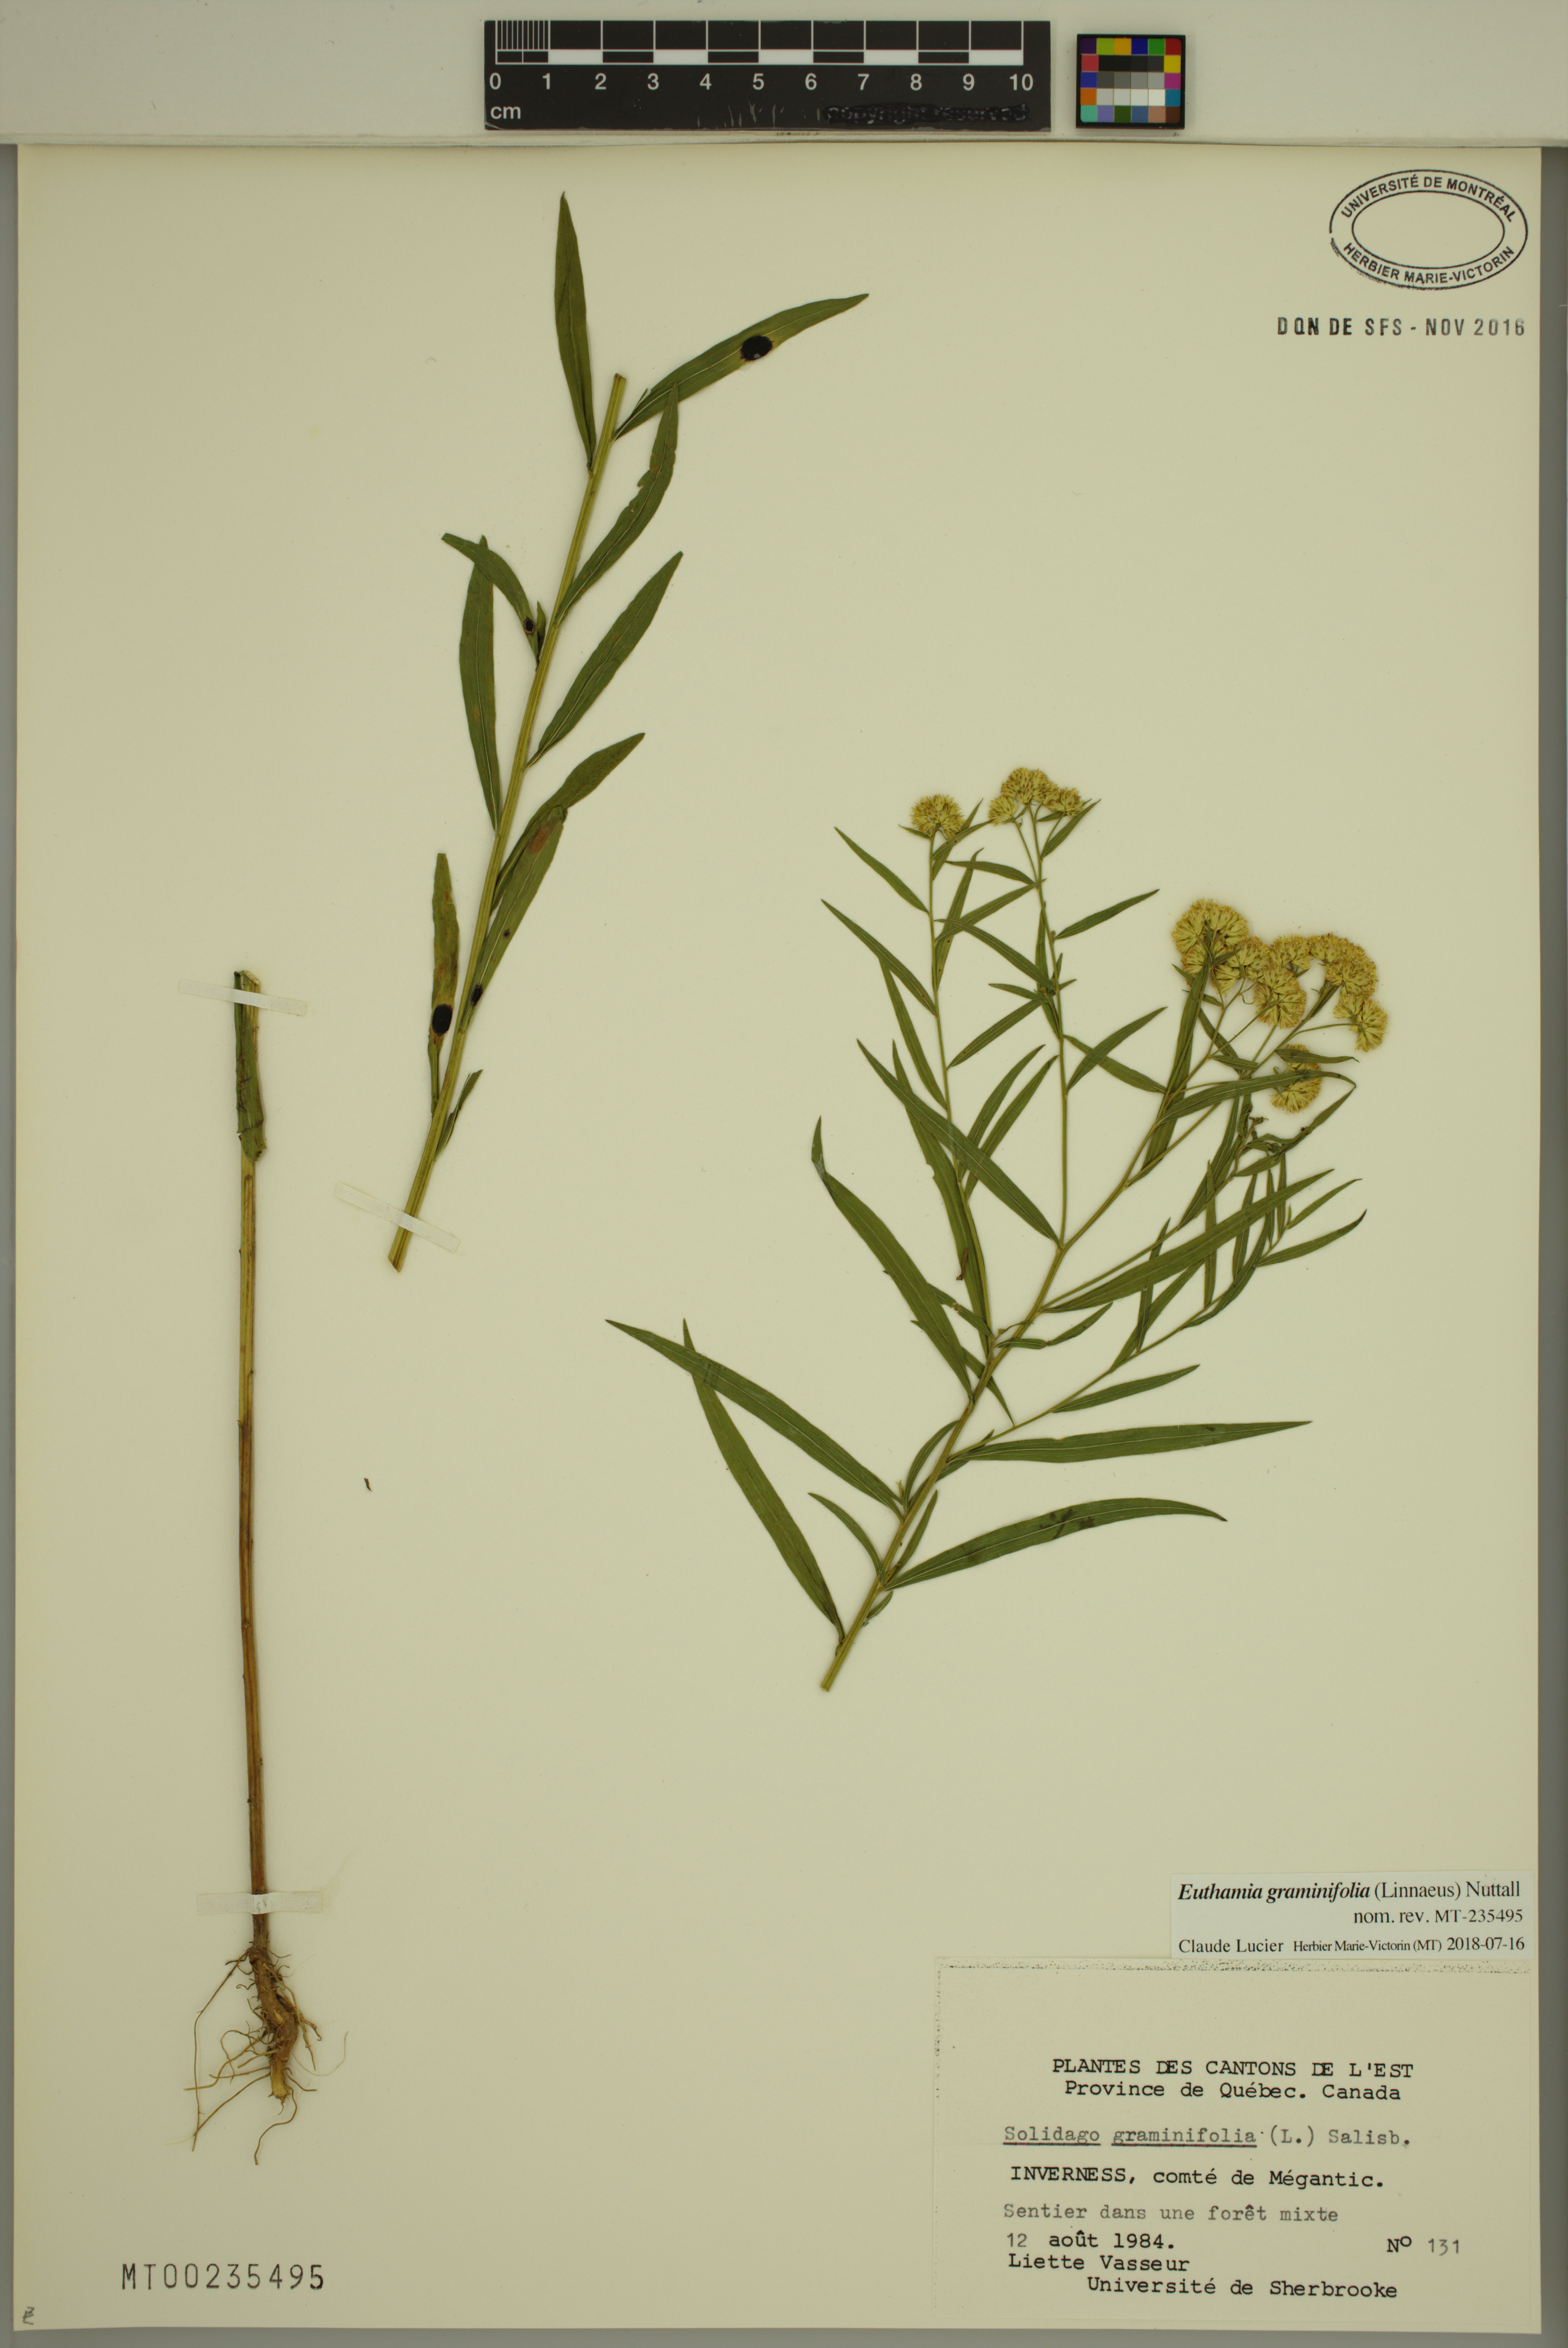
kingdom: Plantae
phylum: Tracheophyta
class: Magnoliopsida
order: Asterales
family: Asteraceae
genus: Euthamia
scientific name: Euthamia graminifolia
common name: Common goldentop
